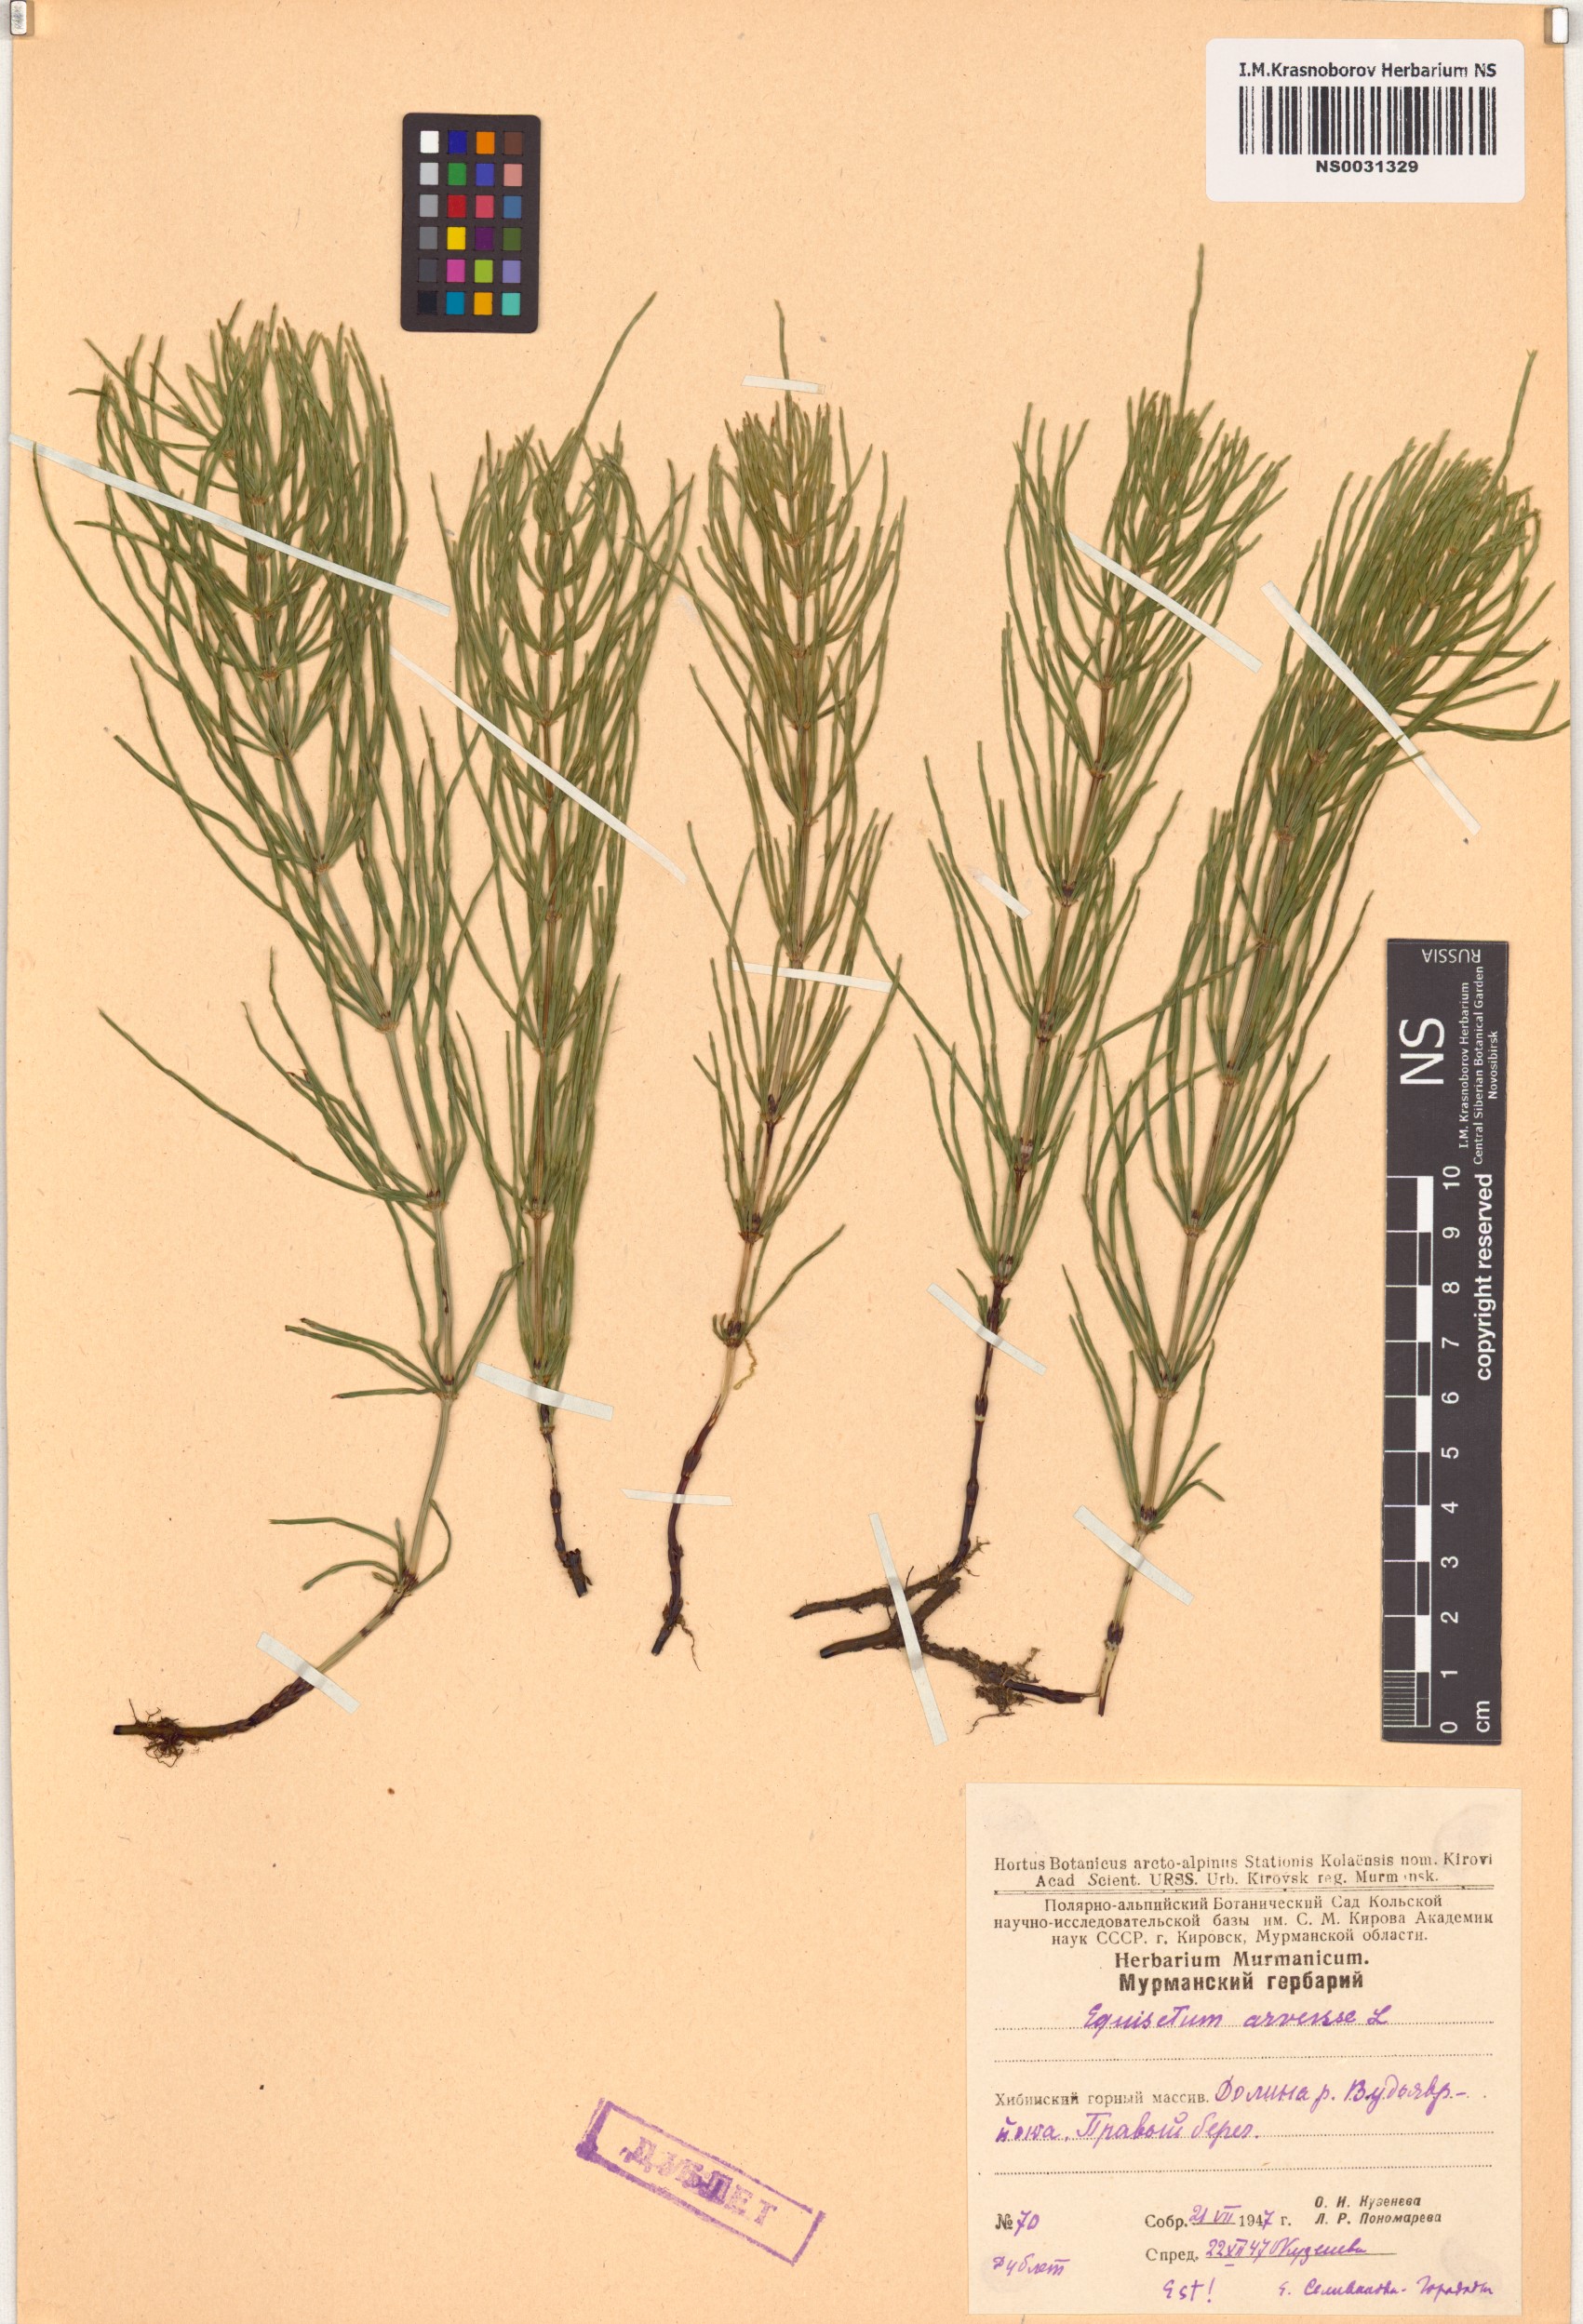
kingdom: Plantae
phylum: Tracheophyta
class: Polypodiopsida
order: Equisetales
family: Equisetaceae
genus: Equisetum
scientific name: Equisetum arvense
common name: Field horsetail
